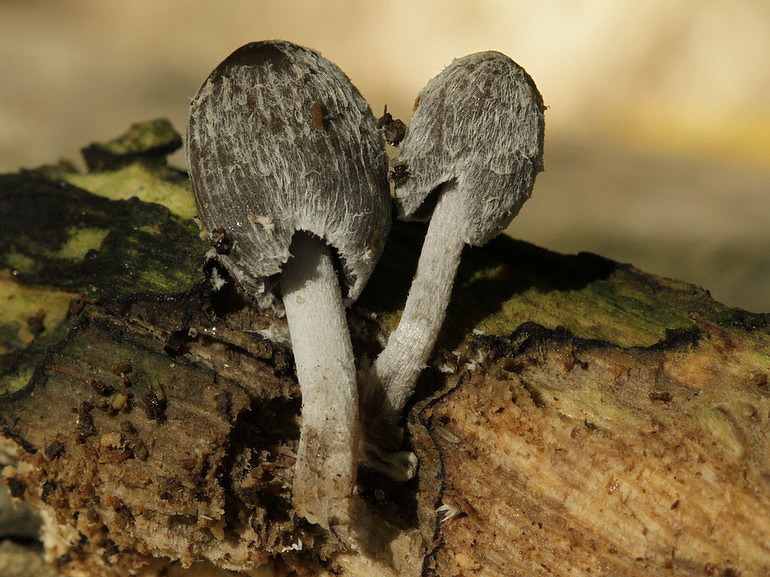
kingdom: Fungi
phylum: Basidiomycota
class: Agaricomycetes
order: Agaricales
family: Psathyrellaceae
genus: Coprinopsis
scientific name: Coprinopsis echinospora
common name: fuglemøg-blækhat
